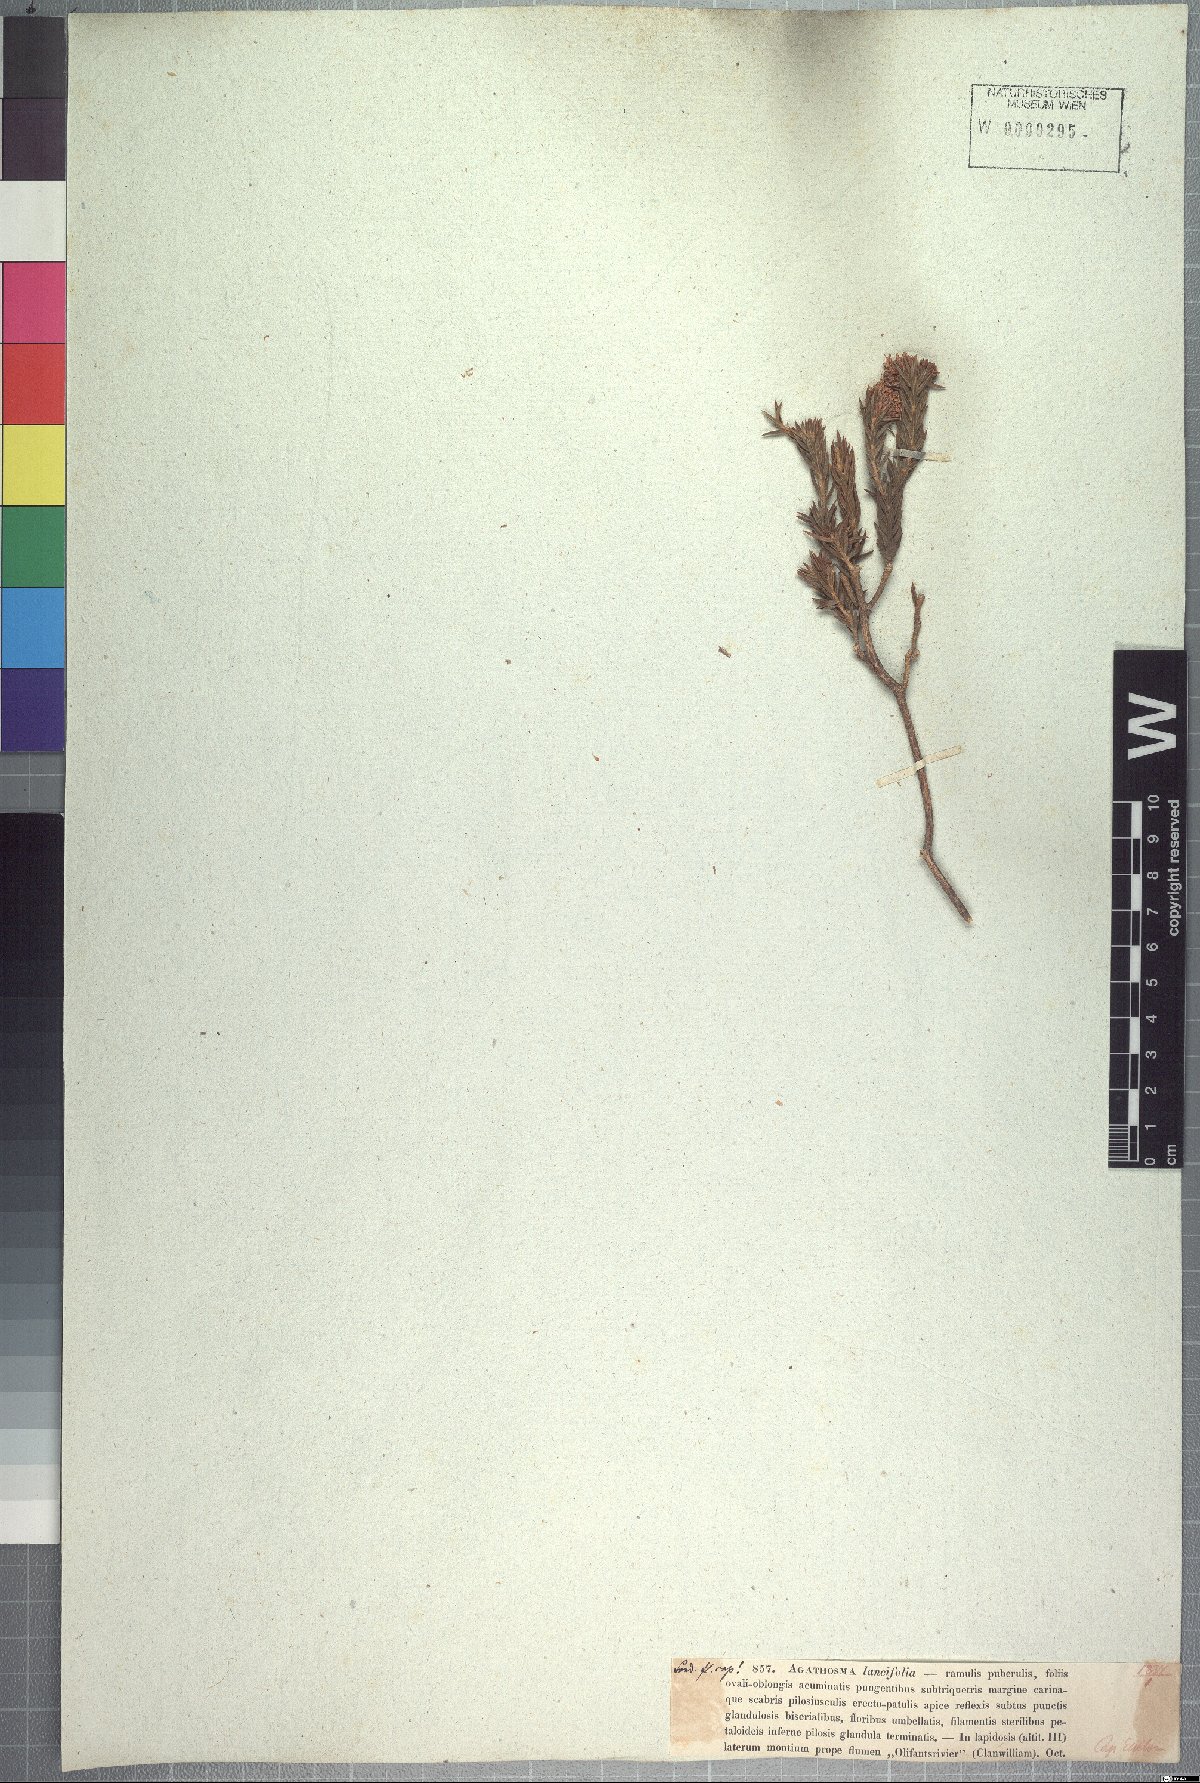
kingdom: Plantae
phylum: Tracheophyta
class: Magnoliopsida
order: Sapindales
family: Rutaceae
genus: Agathosma
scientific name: Agathosma lancifolia
